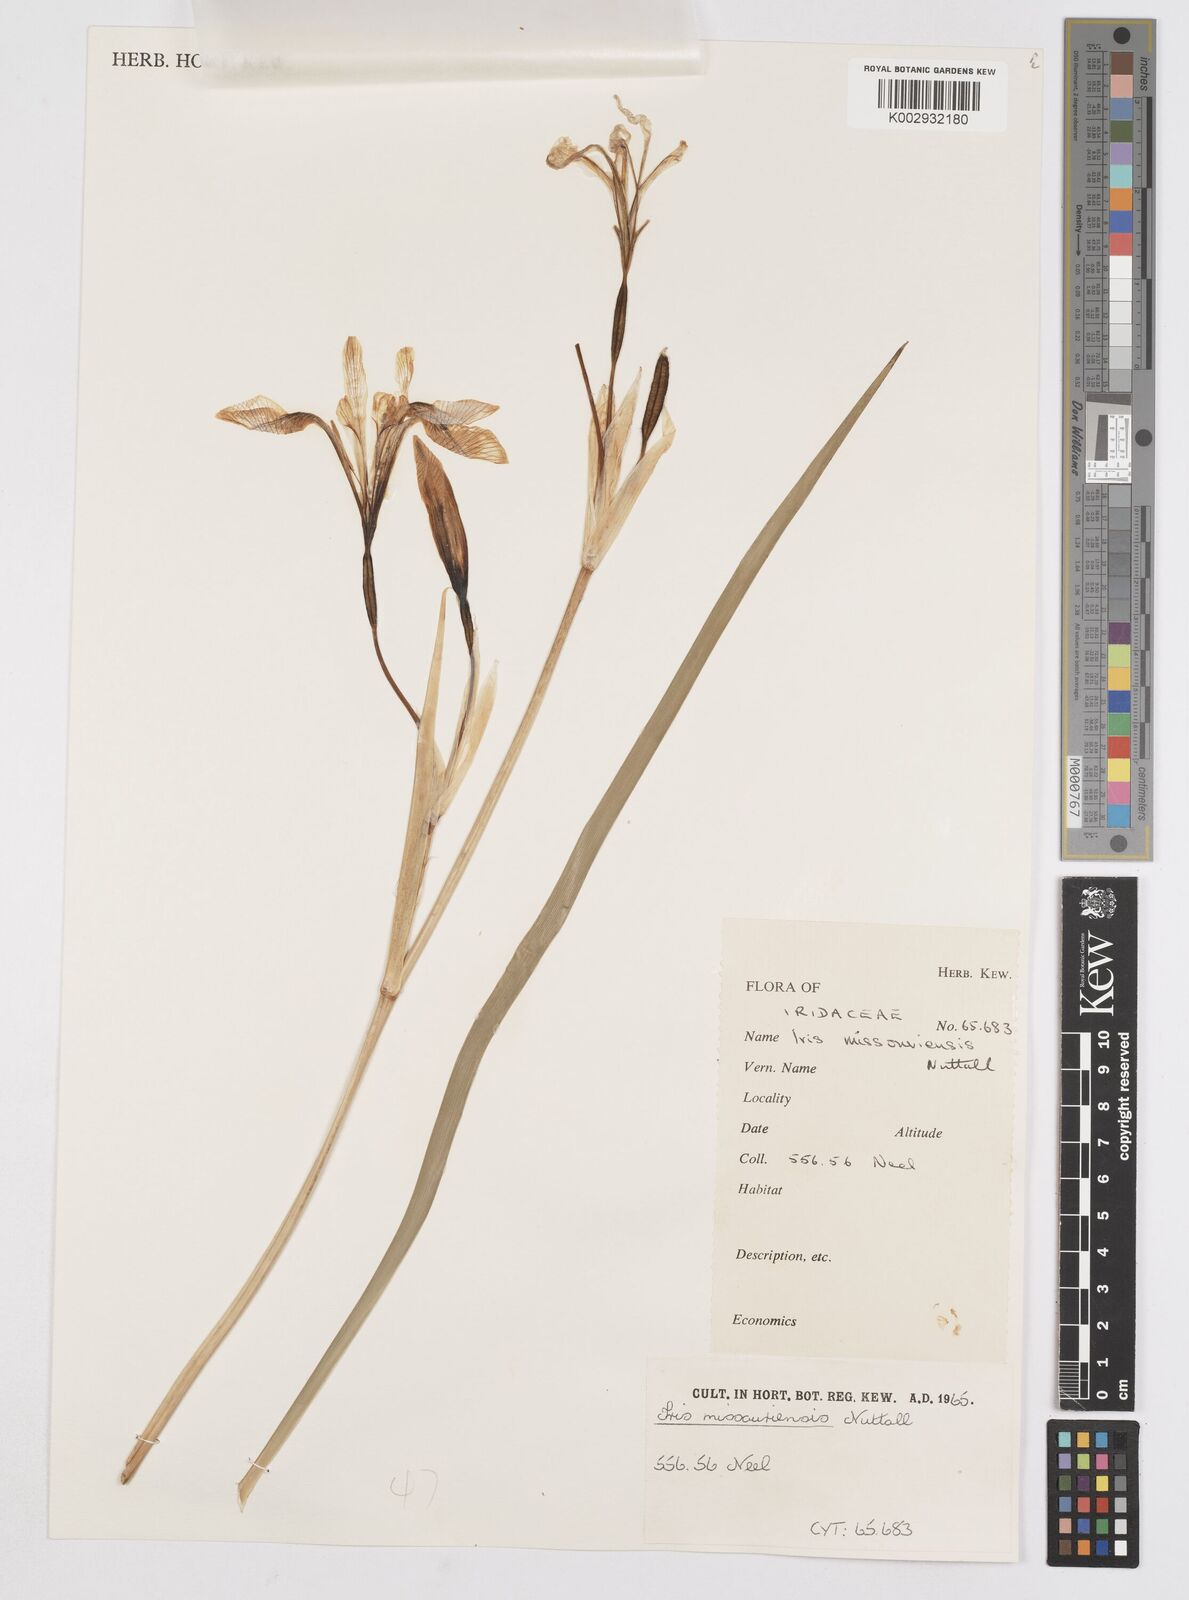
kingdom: Plantae
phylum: Tracheophyta
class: Liliopsida
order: Asparagales
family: Iridaceae
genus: Iris
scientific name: Iris missouriensis
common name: Rocky mountain iris
